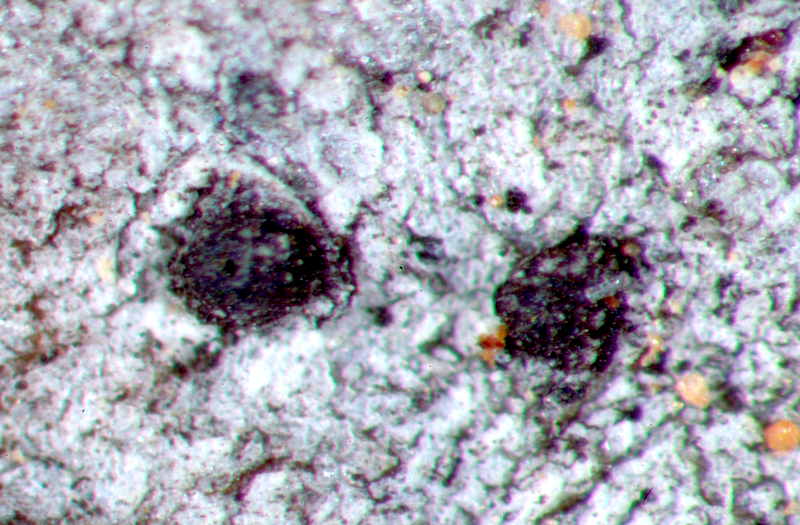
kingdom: Fungi
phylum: Ascomycota
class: Lecanoromycetes
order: Caliciales
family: Caliciaceae
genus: Amandinea
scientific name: Amandinea extenuata
